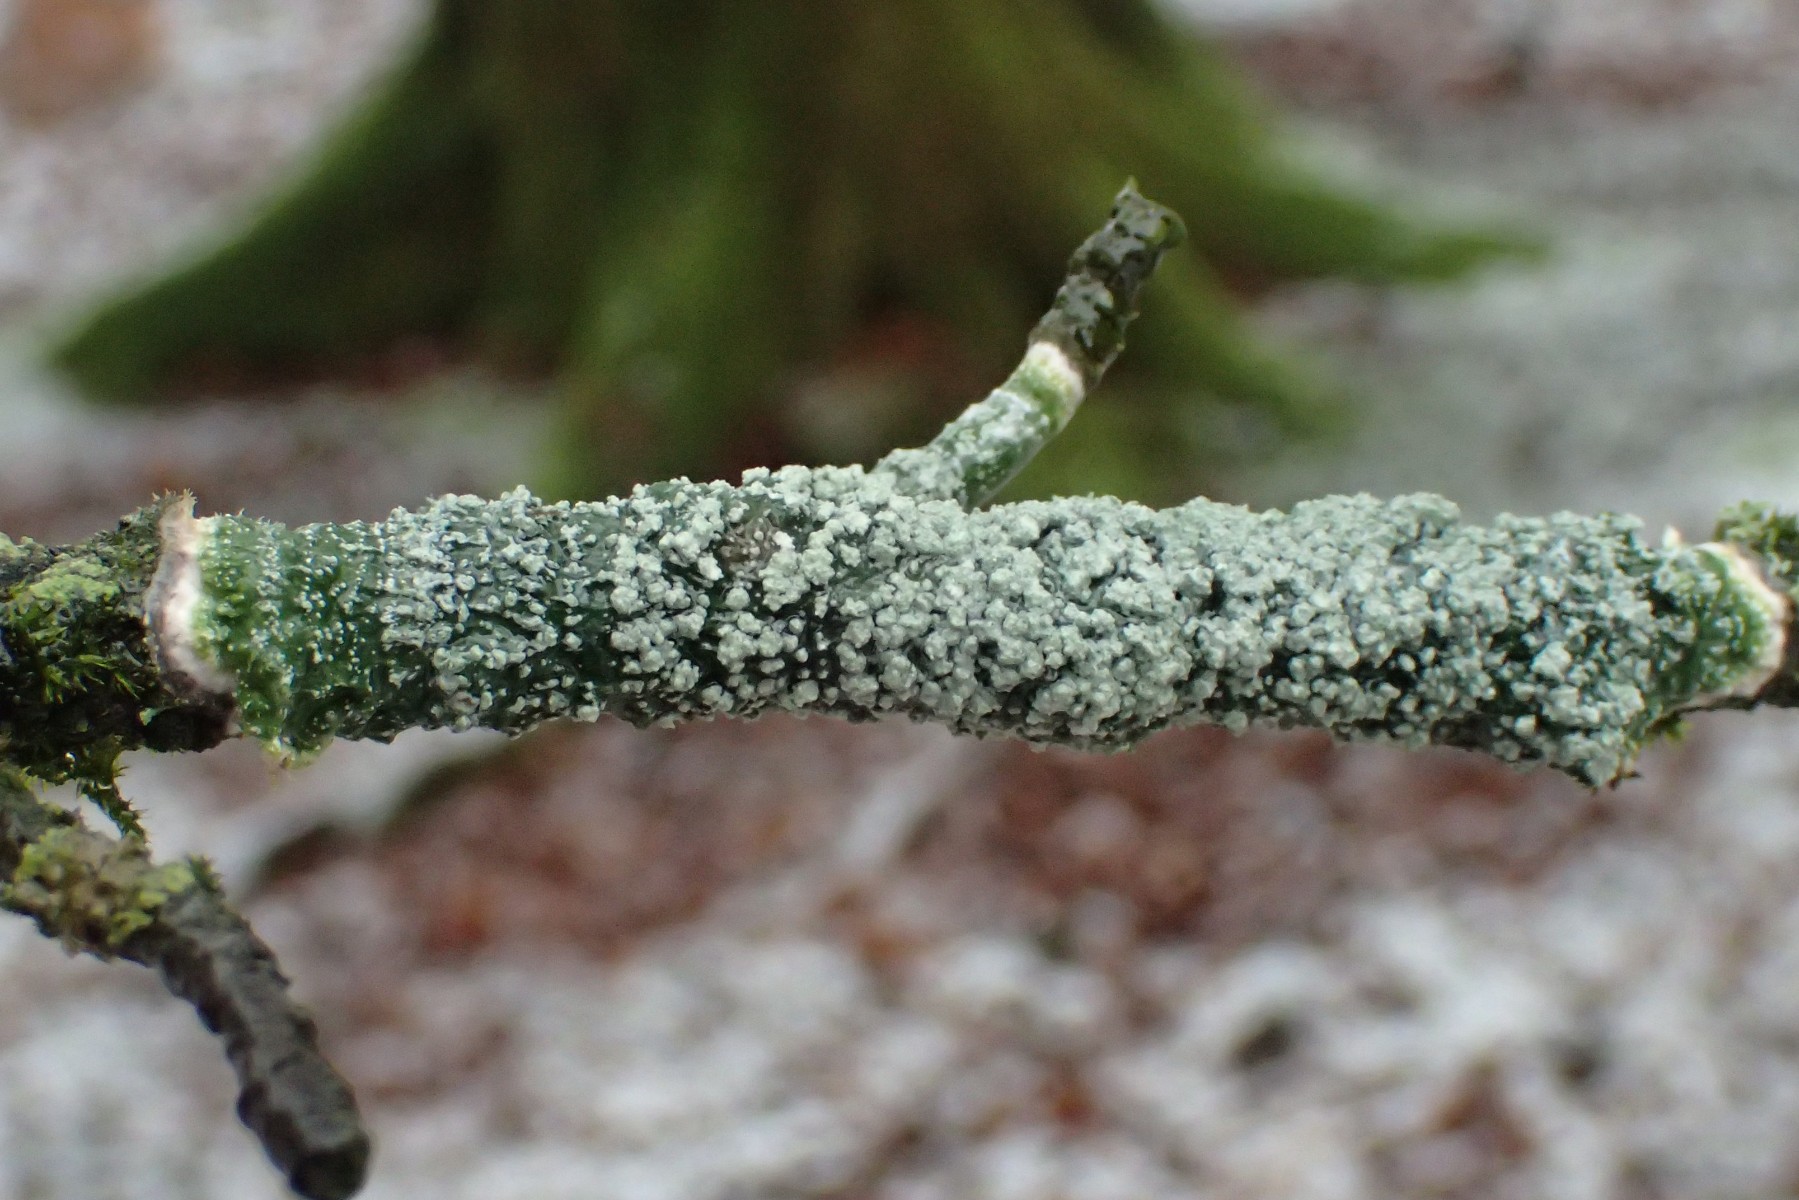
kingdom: Fungi
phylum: Ascomycota
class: Lecanoromycetes
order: Pertusariales
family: Pertusariaceae
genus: Lepra
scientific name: Lepra albescens
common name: hvidmelet prikvortelav
